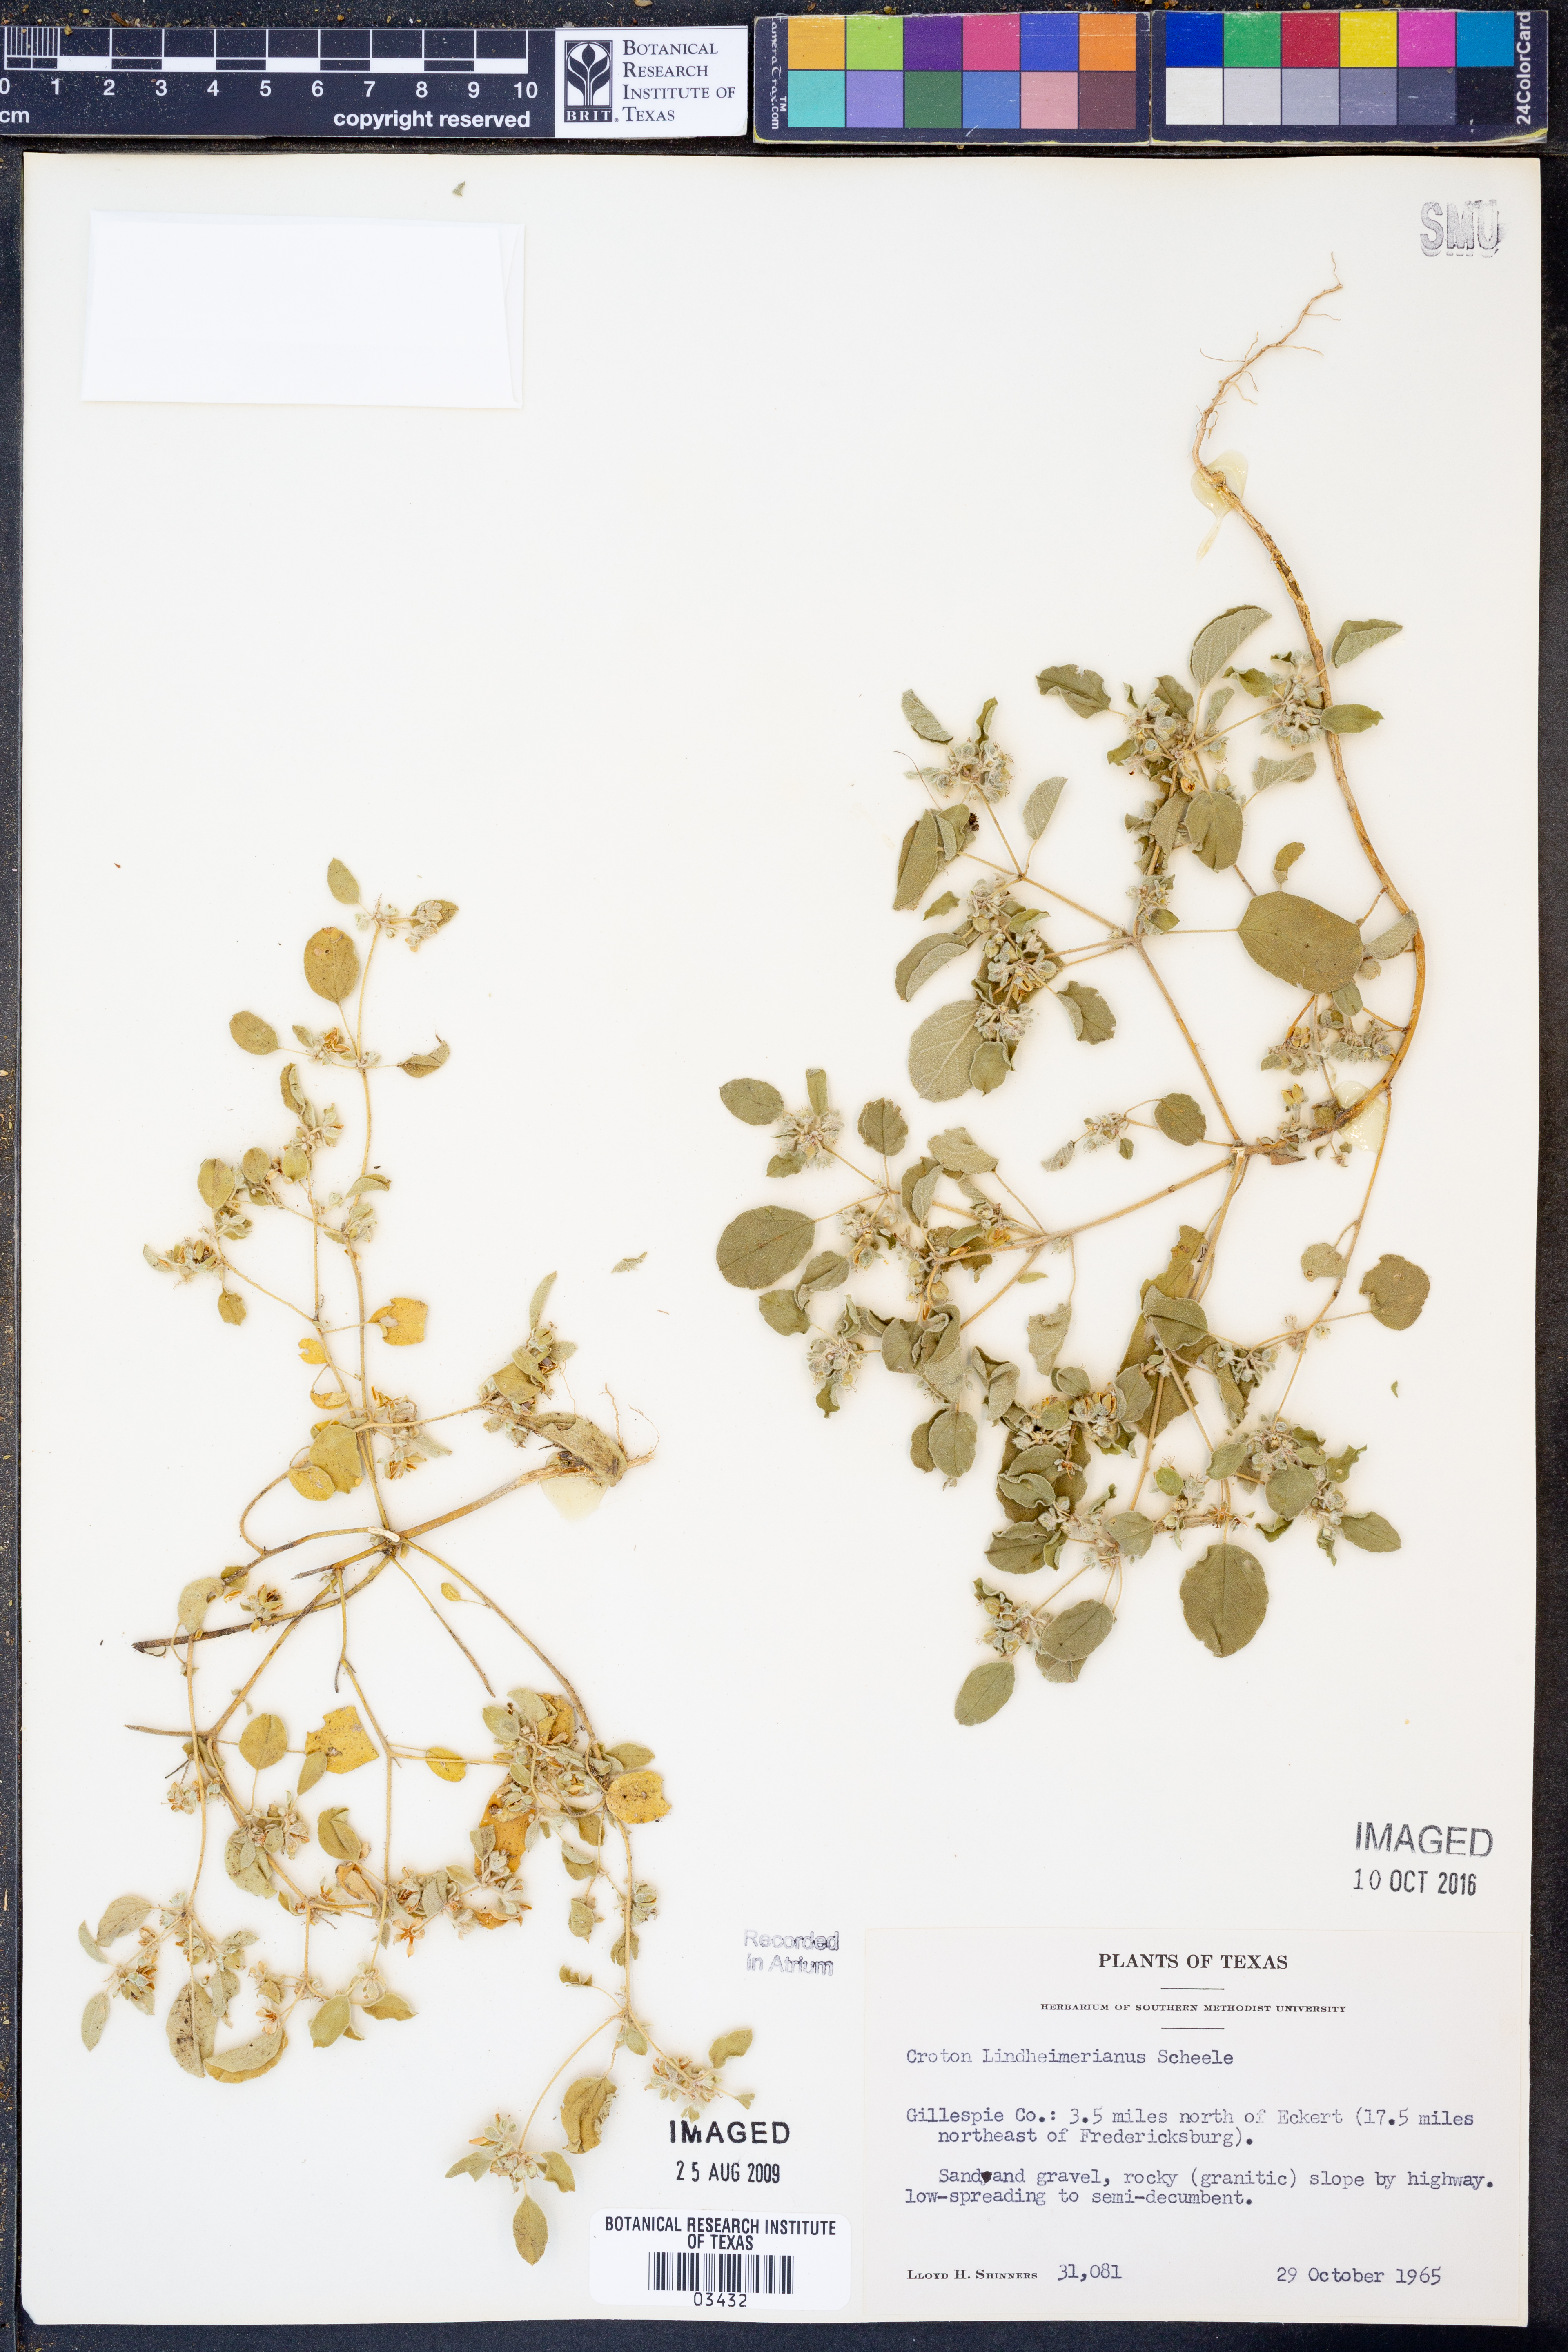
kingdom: Plantae
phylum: Tracheophyta
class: Magnoliopsida
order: Malpighiales
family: Euphorbiaceae
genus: Croton
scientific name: Croton lindheimerianus
